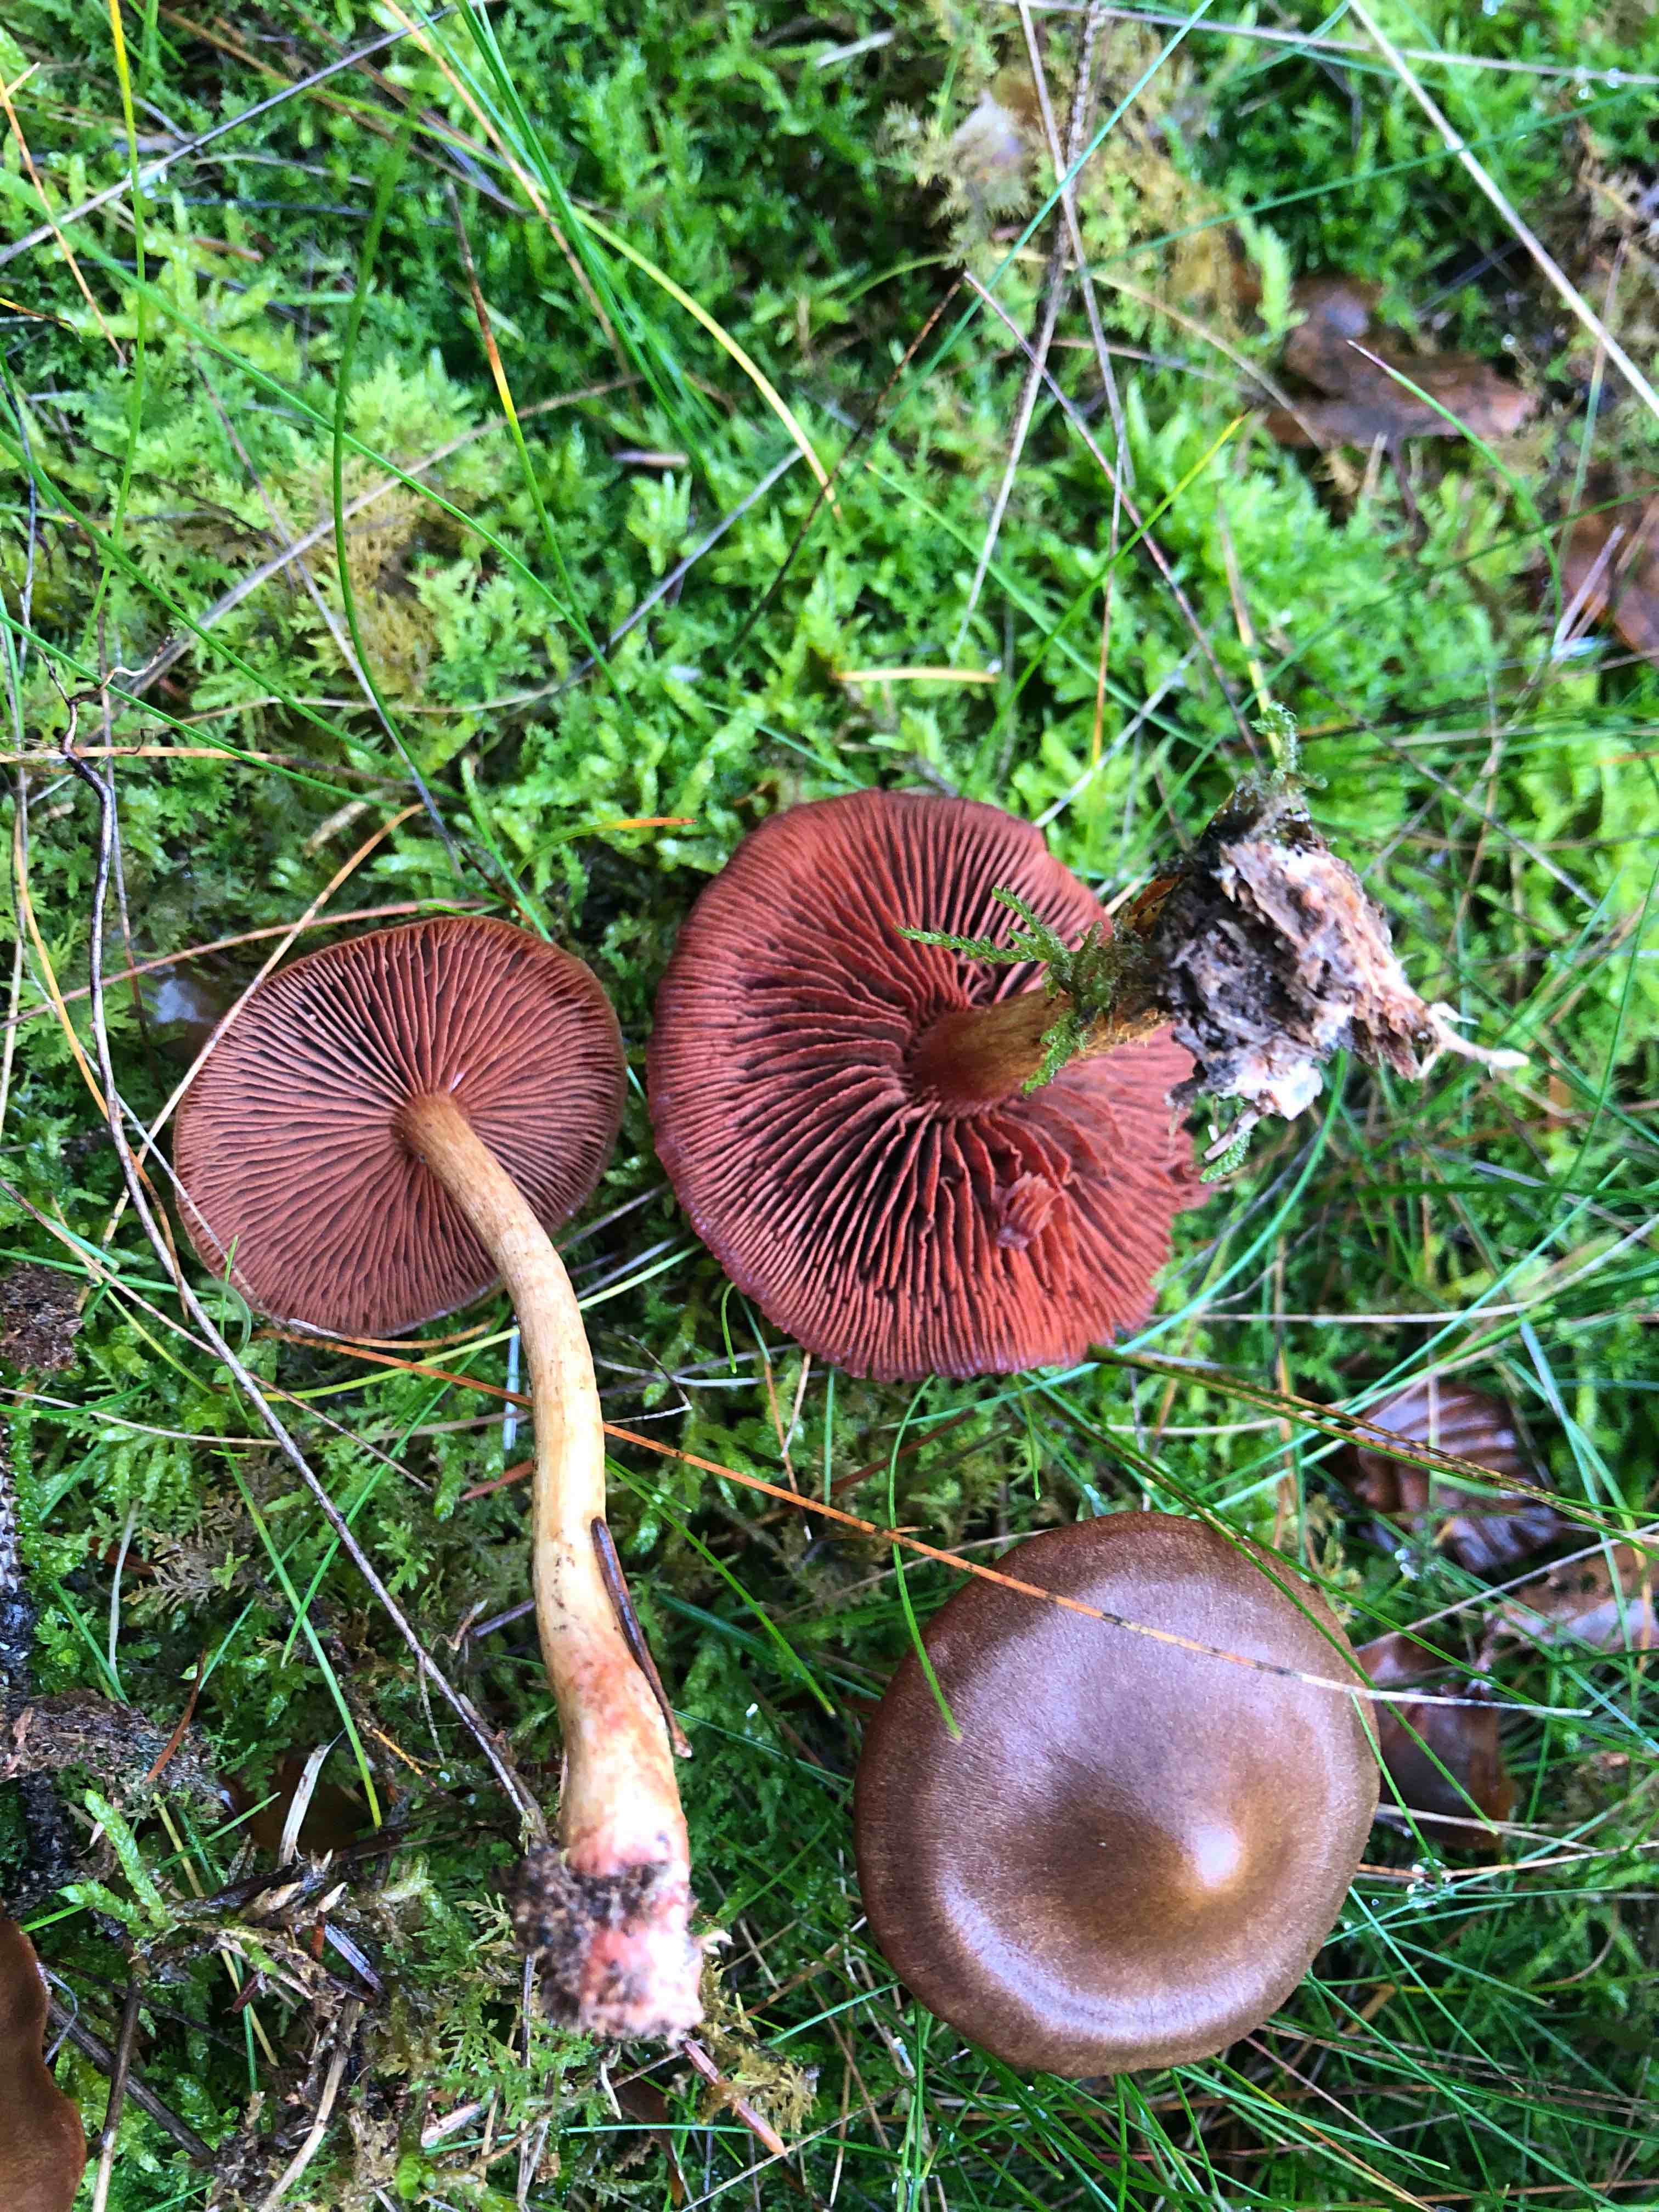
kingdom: Fungi
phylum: Basidiomycota
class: Agaricomycetes
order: Agaricales
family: Cortinariaceae
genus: Cortinarius
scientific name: Cortinarius
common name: cinnoberbladet slørhat
